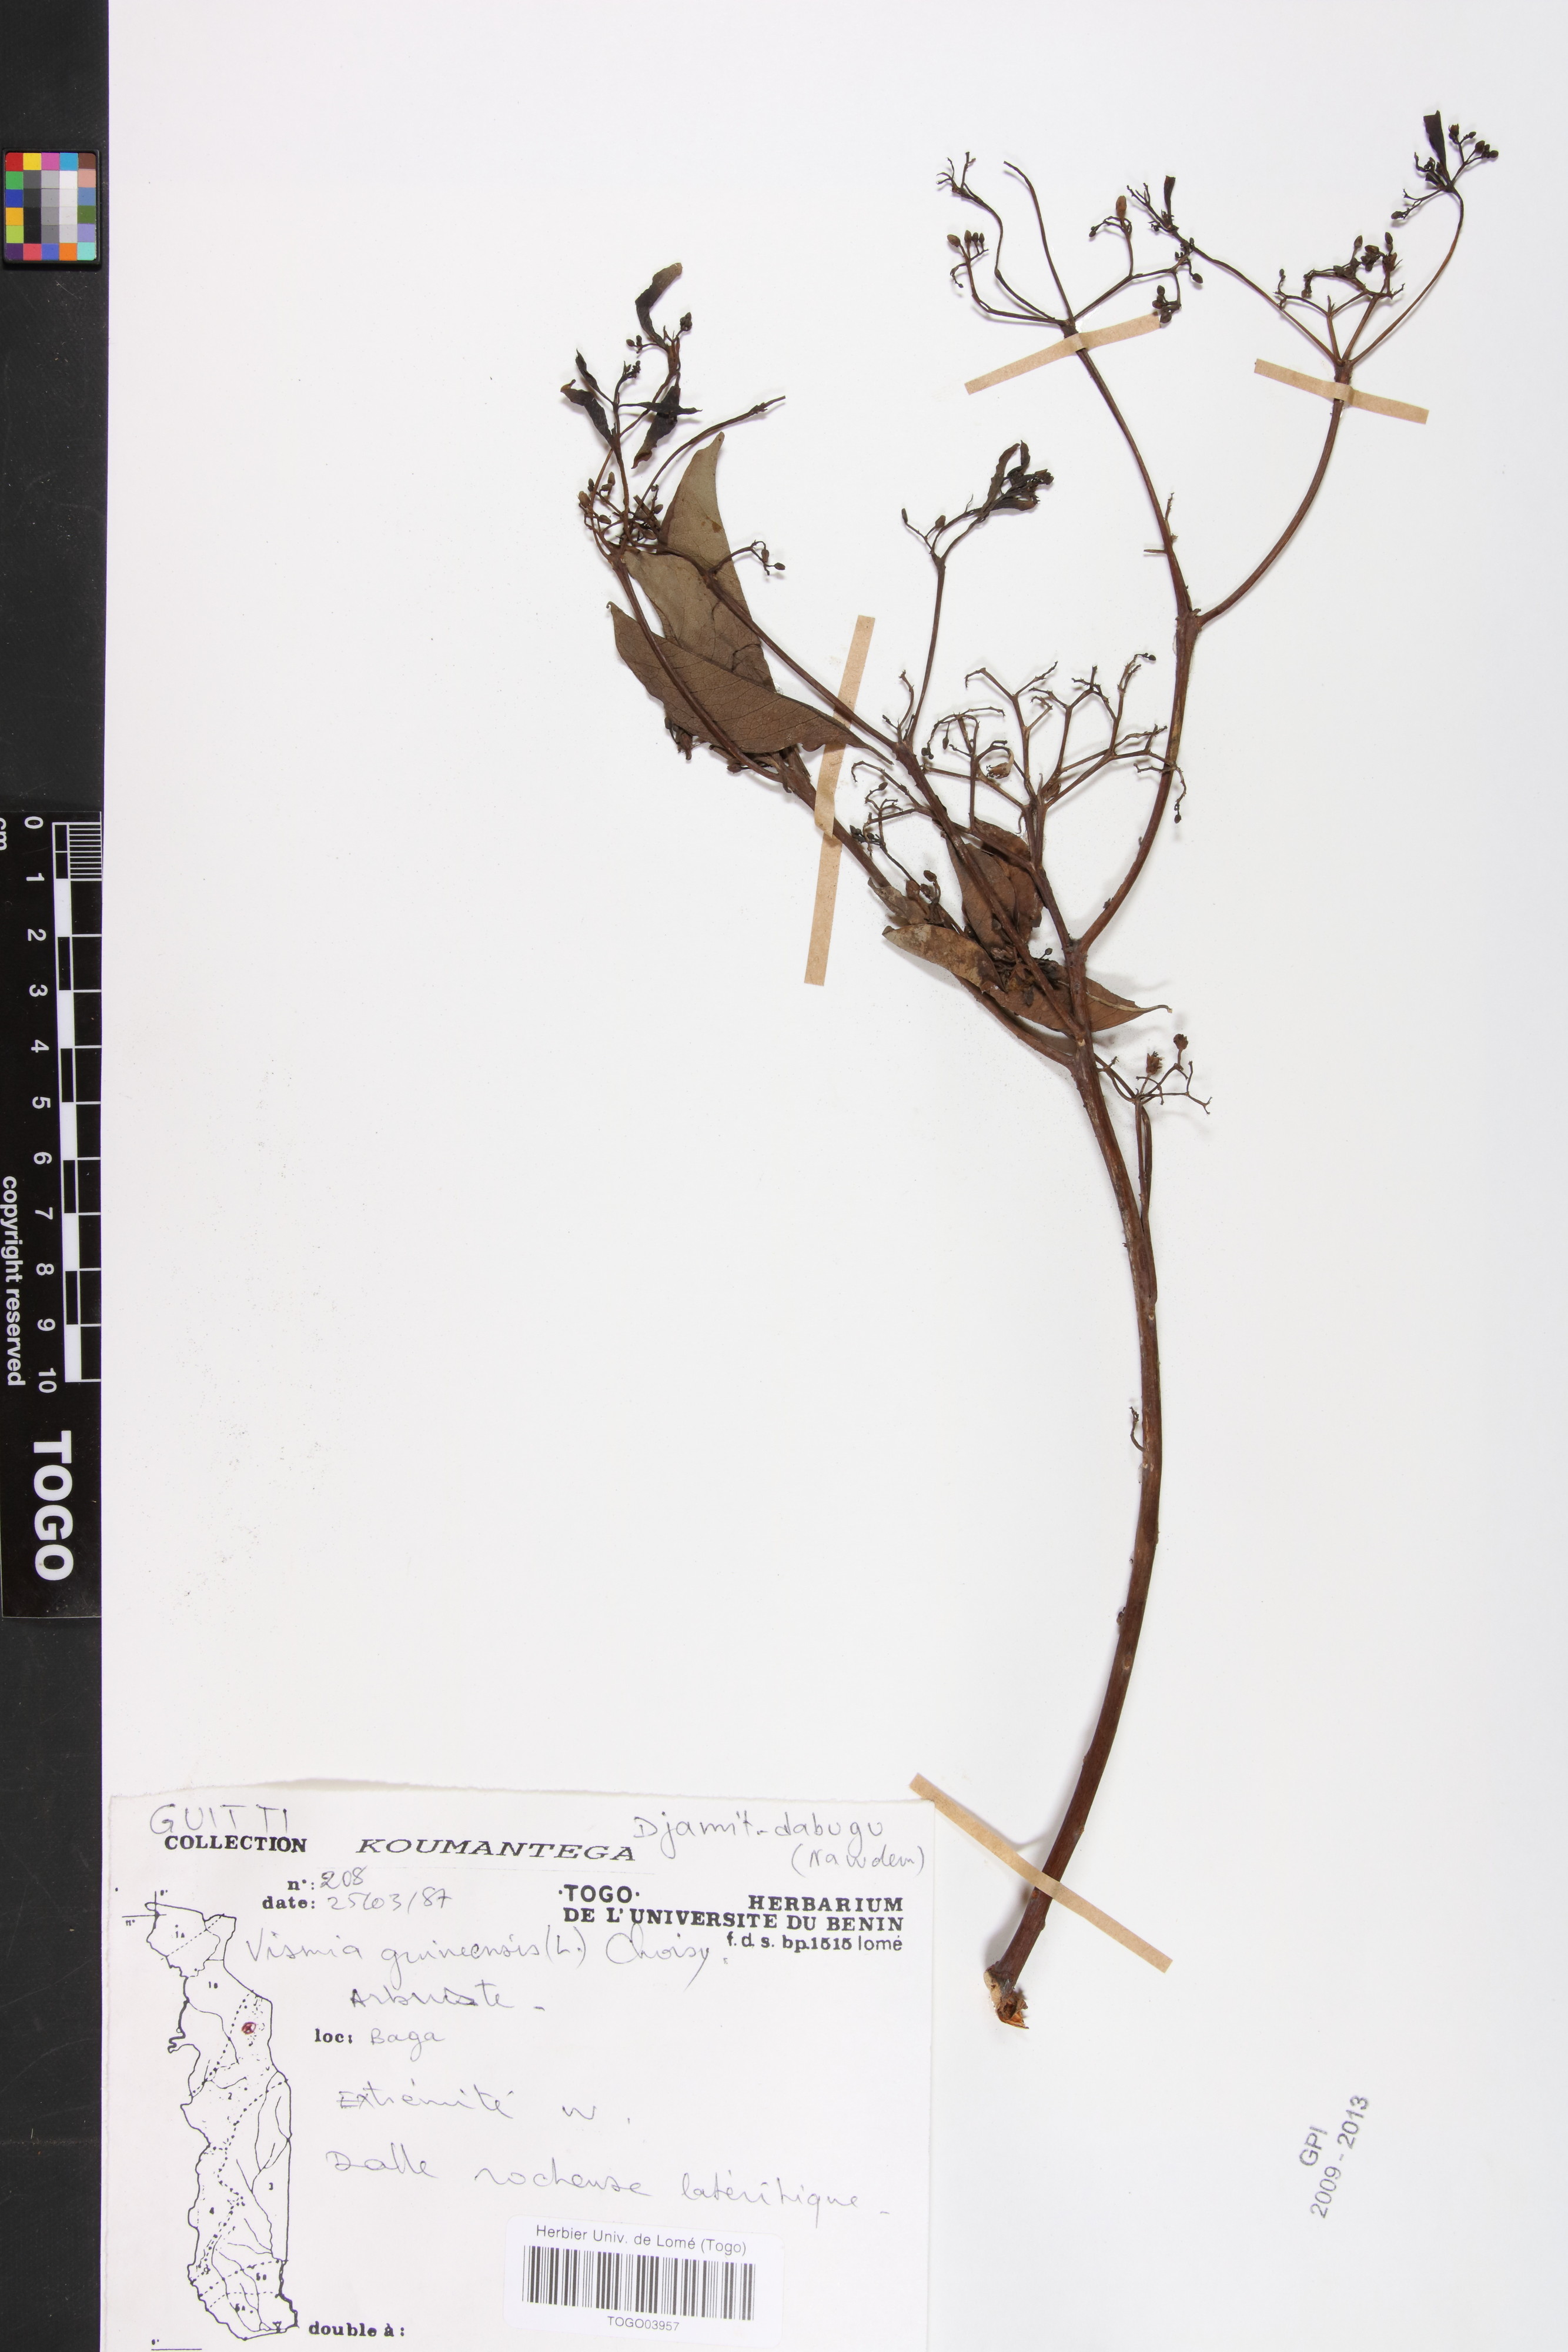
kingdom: Plantae
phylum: Tracheophyta
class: Magnoliopsida
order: Malpighiales
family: Hypericaceae
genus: Psorospermum
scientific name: Psorospermum guineense
